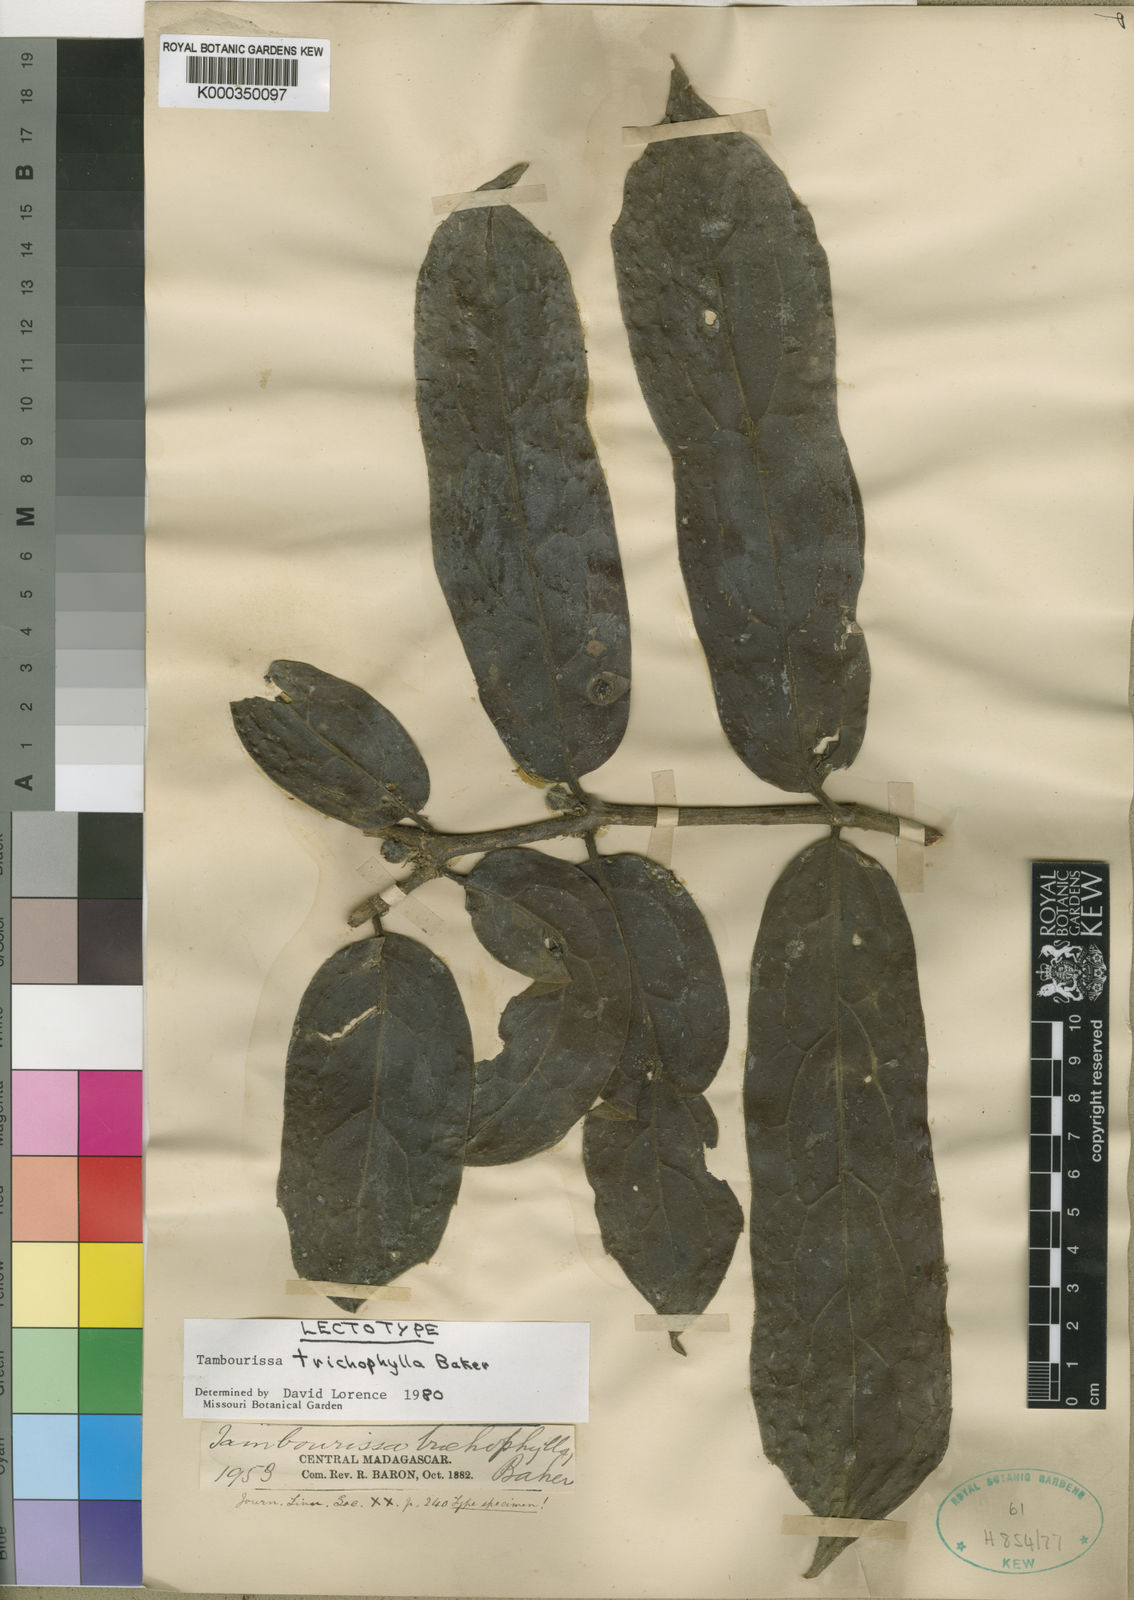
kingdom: Plantae
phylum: Tracheophyta
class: Magnoliopsida
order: Laurales
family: Monimiaceae
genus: Tambourissa
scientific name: Tambourissa trichophylla
